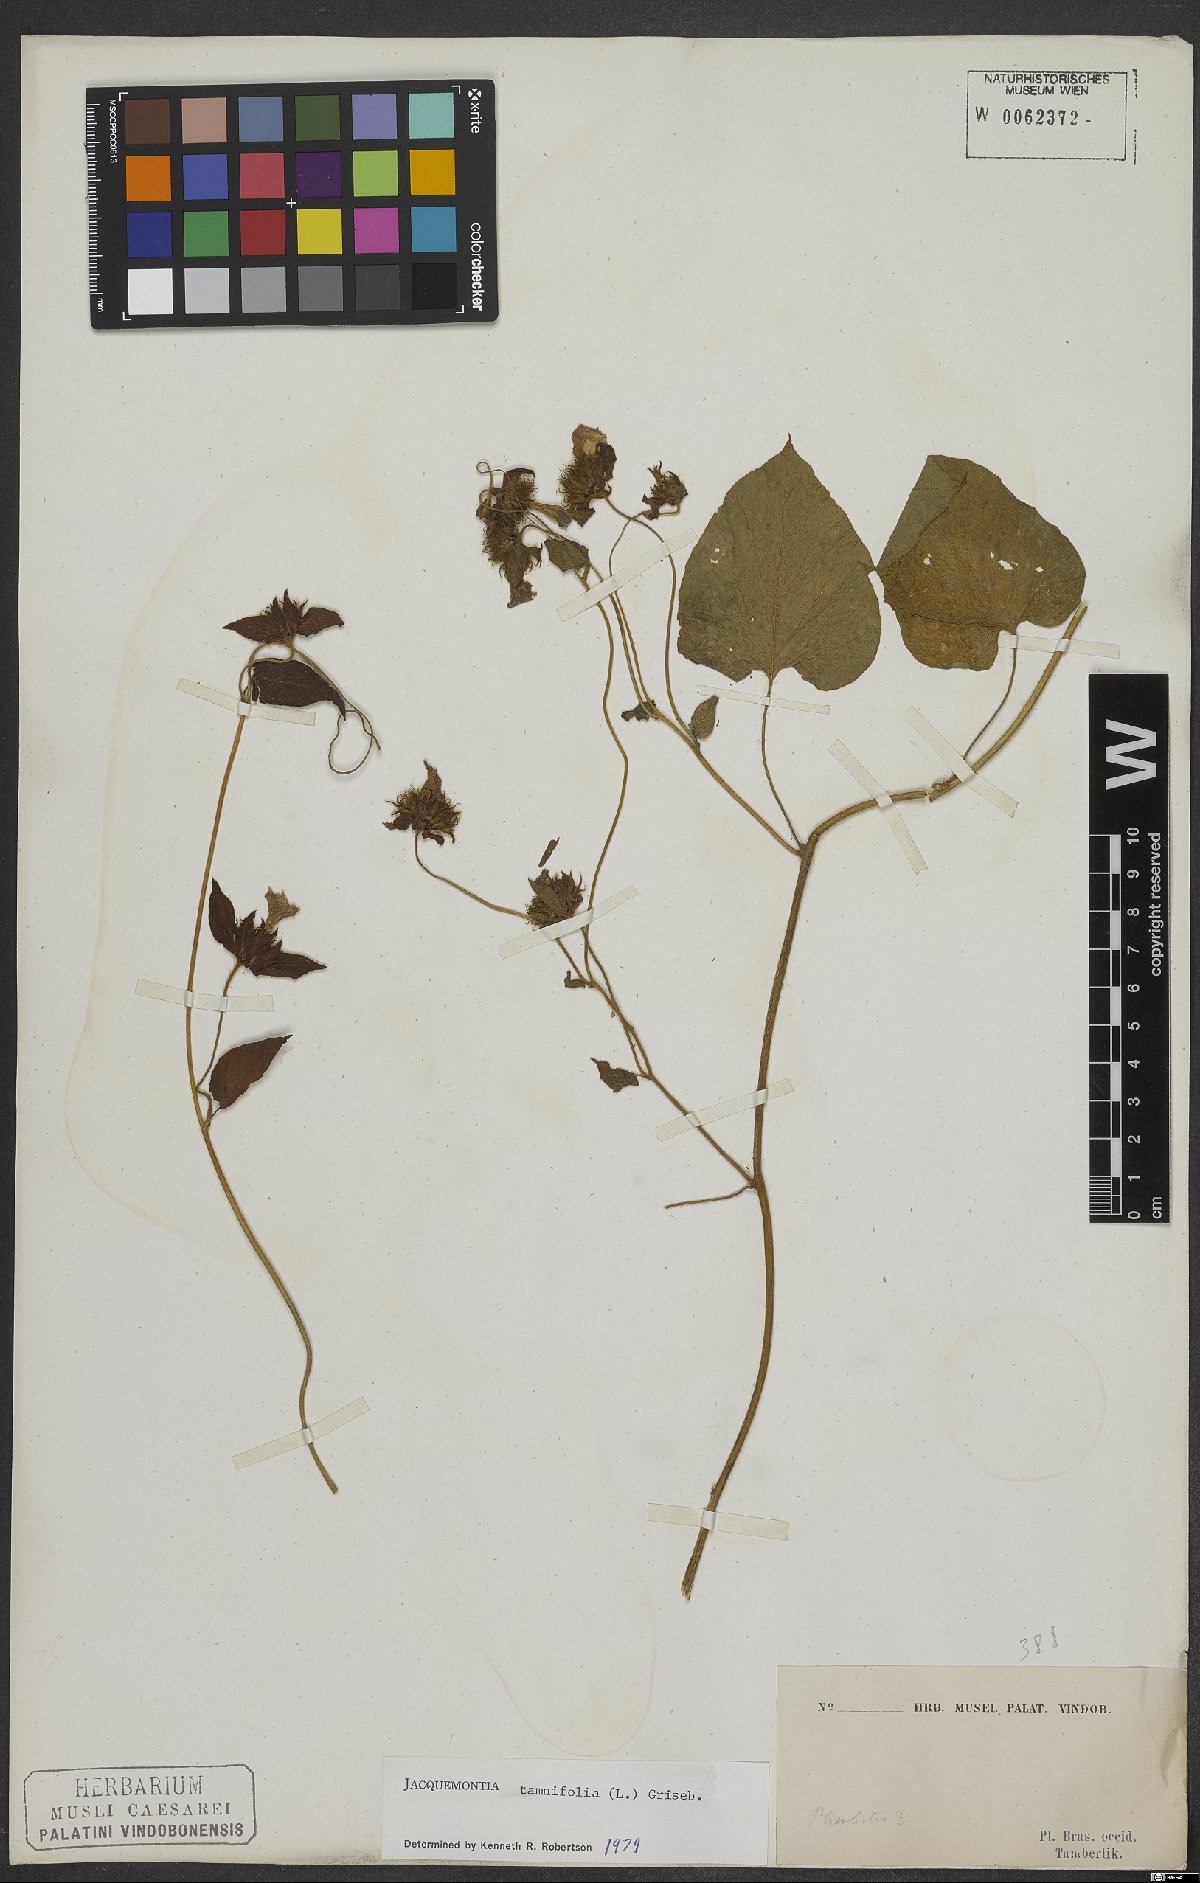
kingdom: Plantae
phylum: Tracheophyta
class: Magnoliopsida
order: Solanales
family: Convolvulaceae
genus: Jacquemontia
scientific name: Jacquemontia tamnifolia
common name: Hairy clustervine
